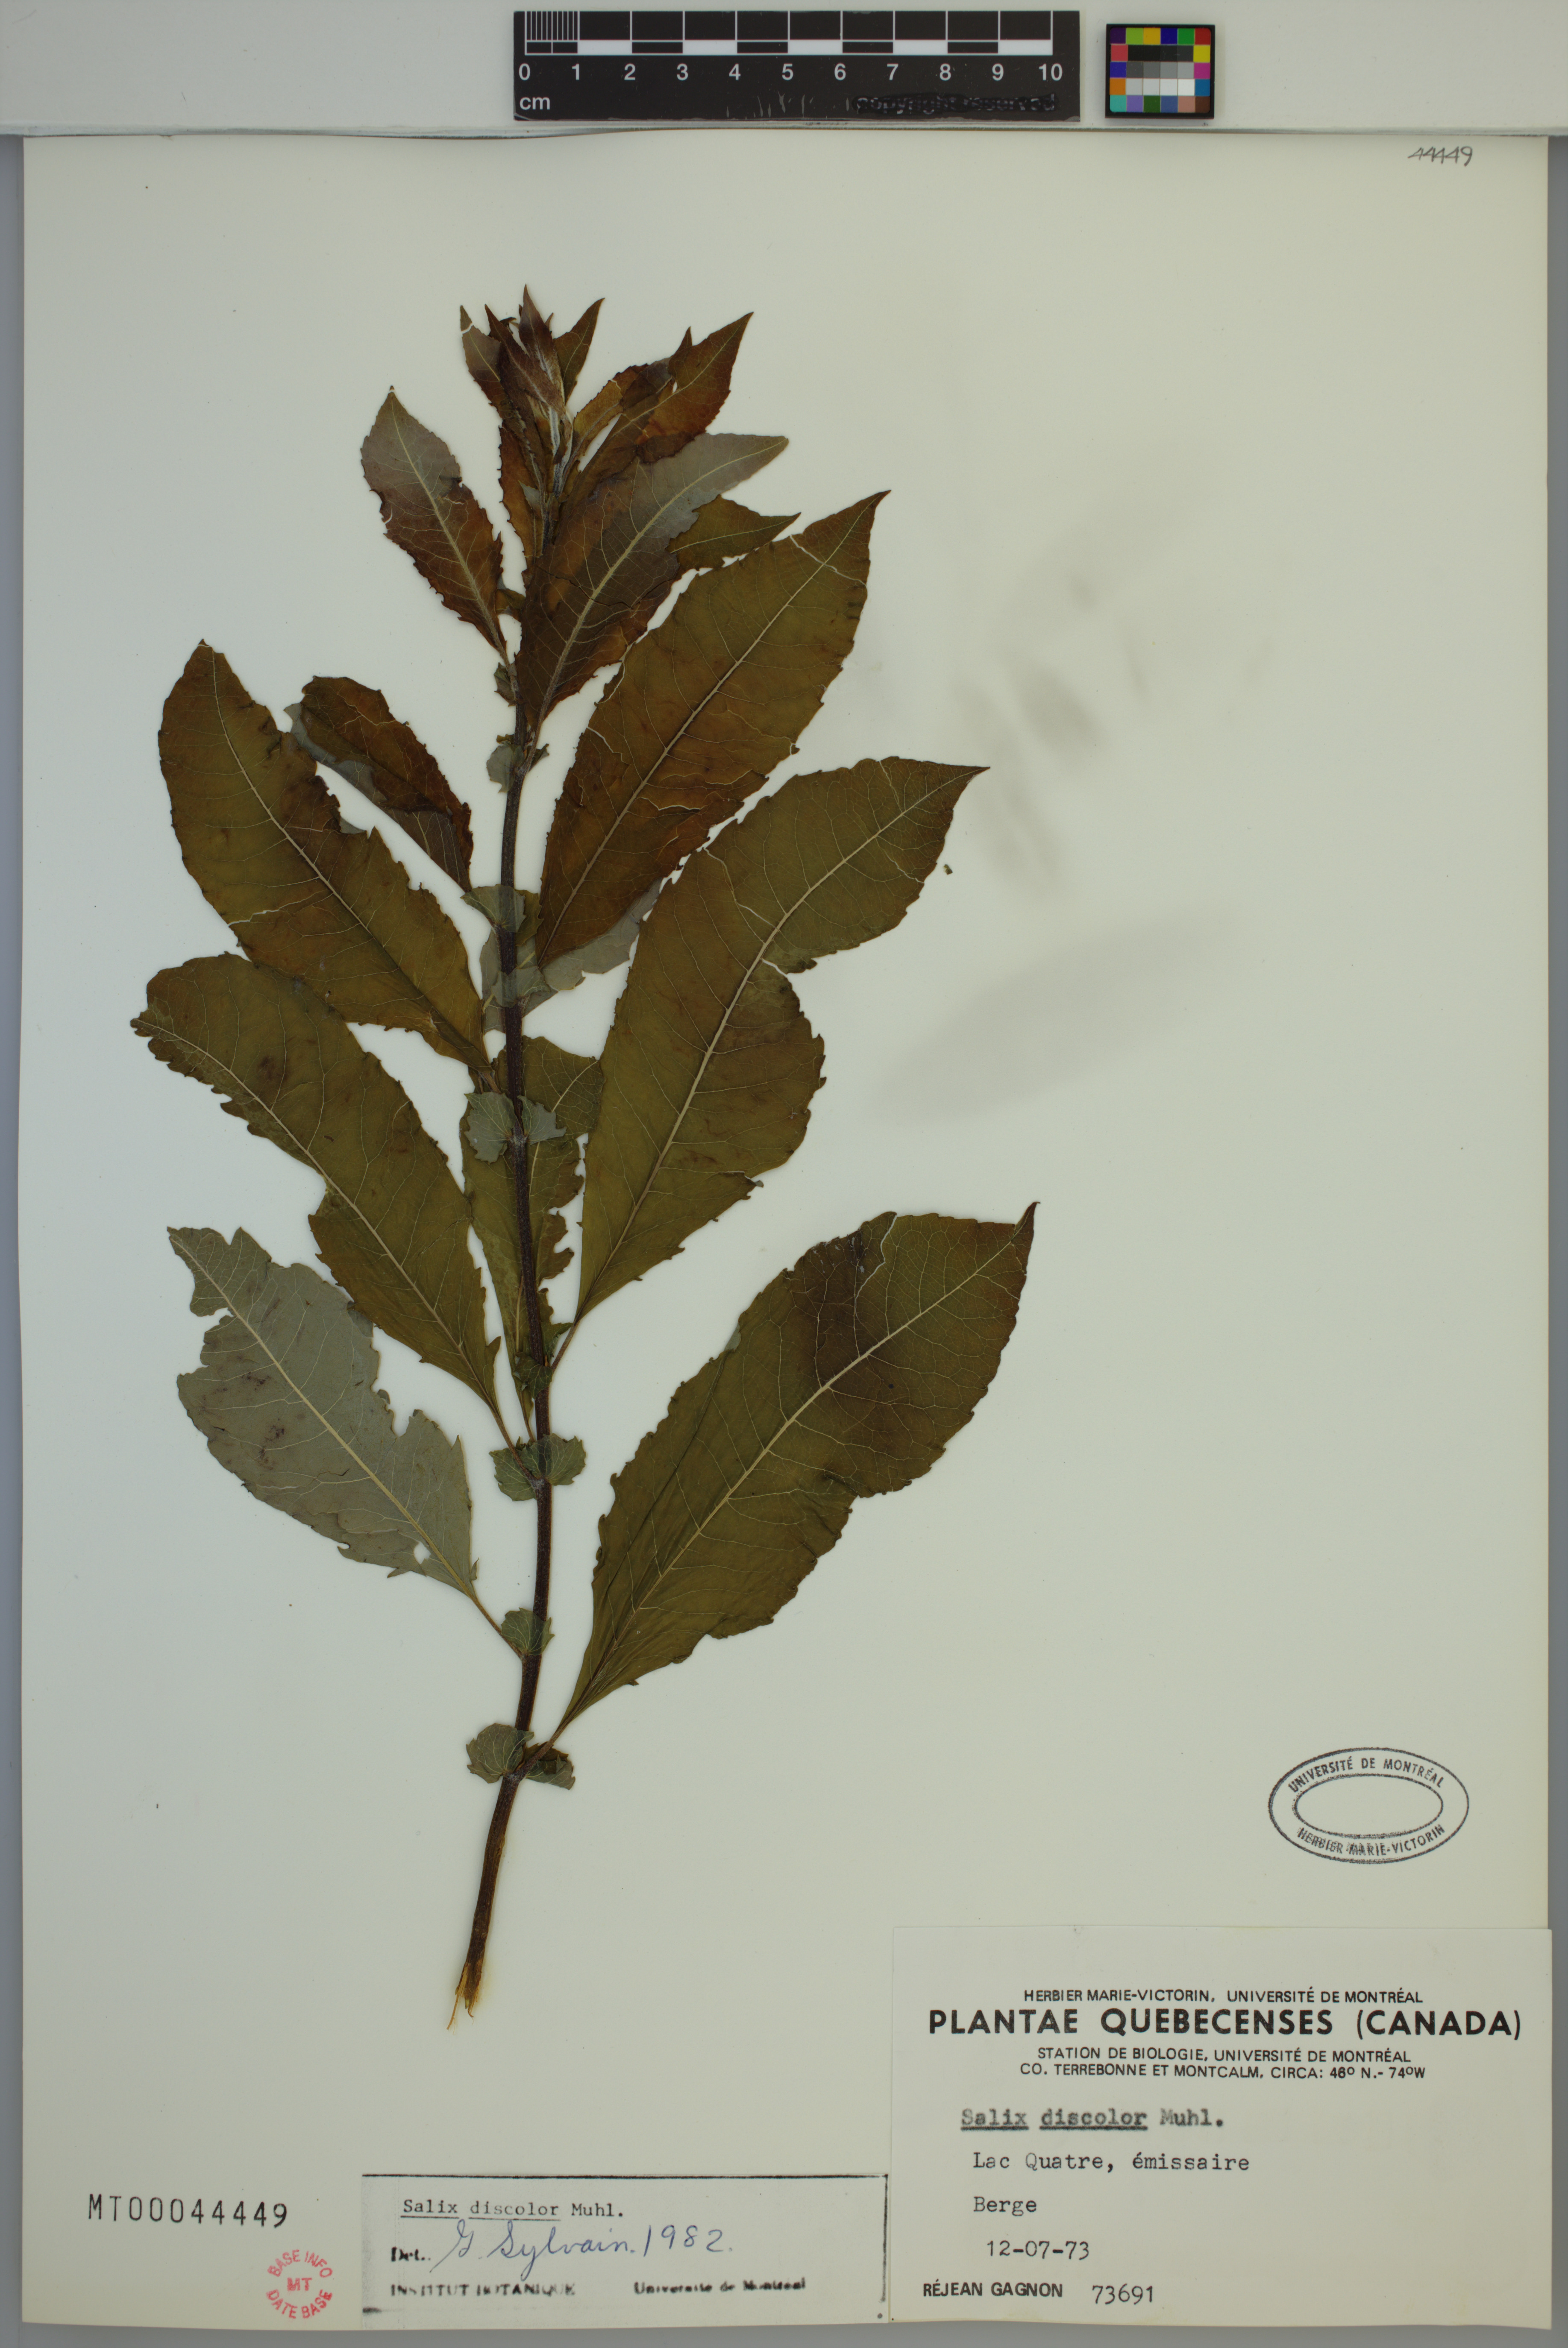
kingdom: Plantae
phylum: Tracheophyta
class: Magnoliopsida
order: Malpighiales
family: Salicaceae
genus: Salix
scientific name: Salix discolor
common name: Glaucous willow
